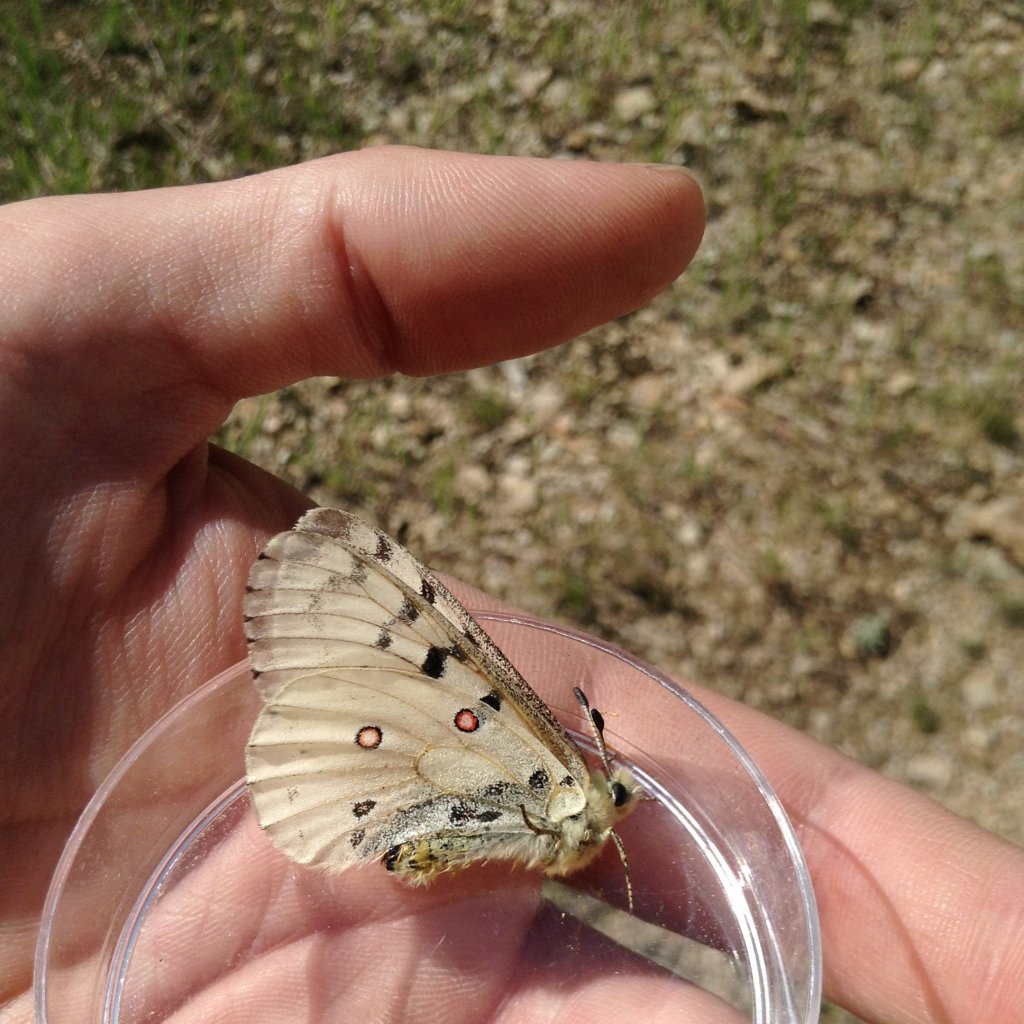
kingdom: Animalia
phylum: Arthropoda
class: Insecta
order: Lepidoptera
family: Papilionidae
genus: Parnassius
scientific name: Parnassius smintheus
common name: Rocky Mountain Parnassian
